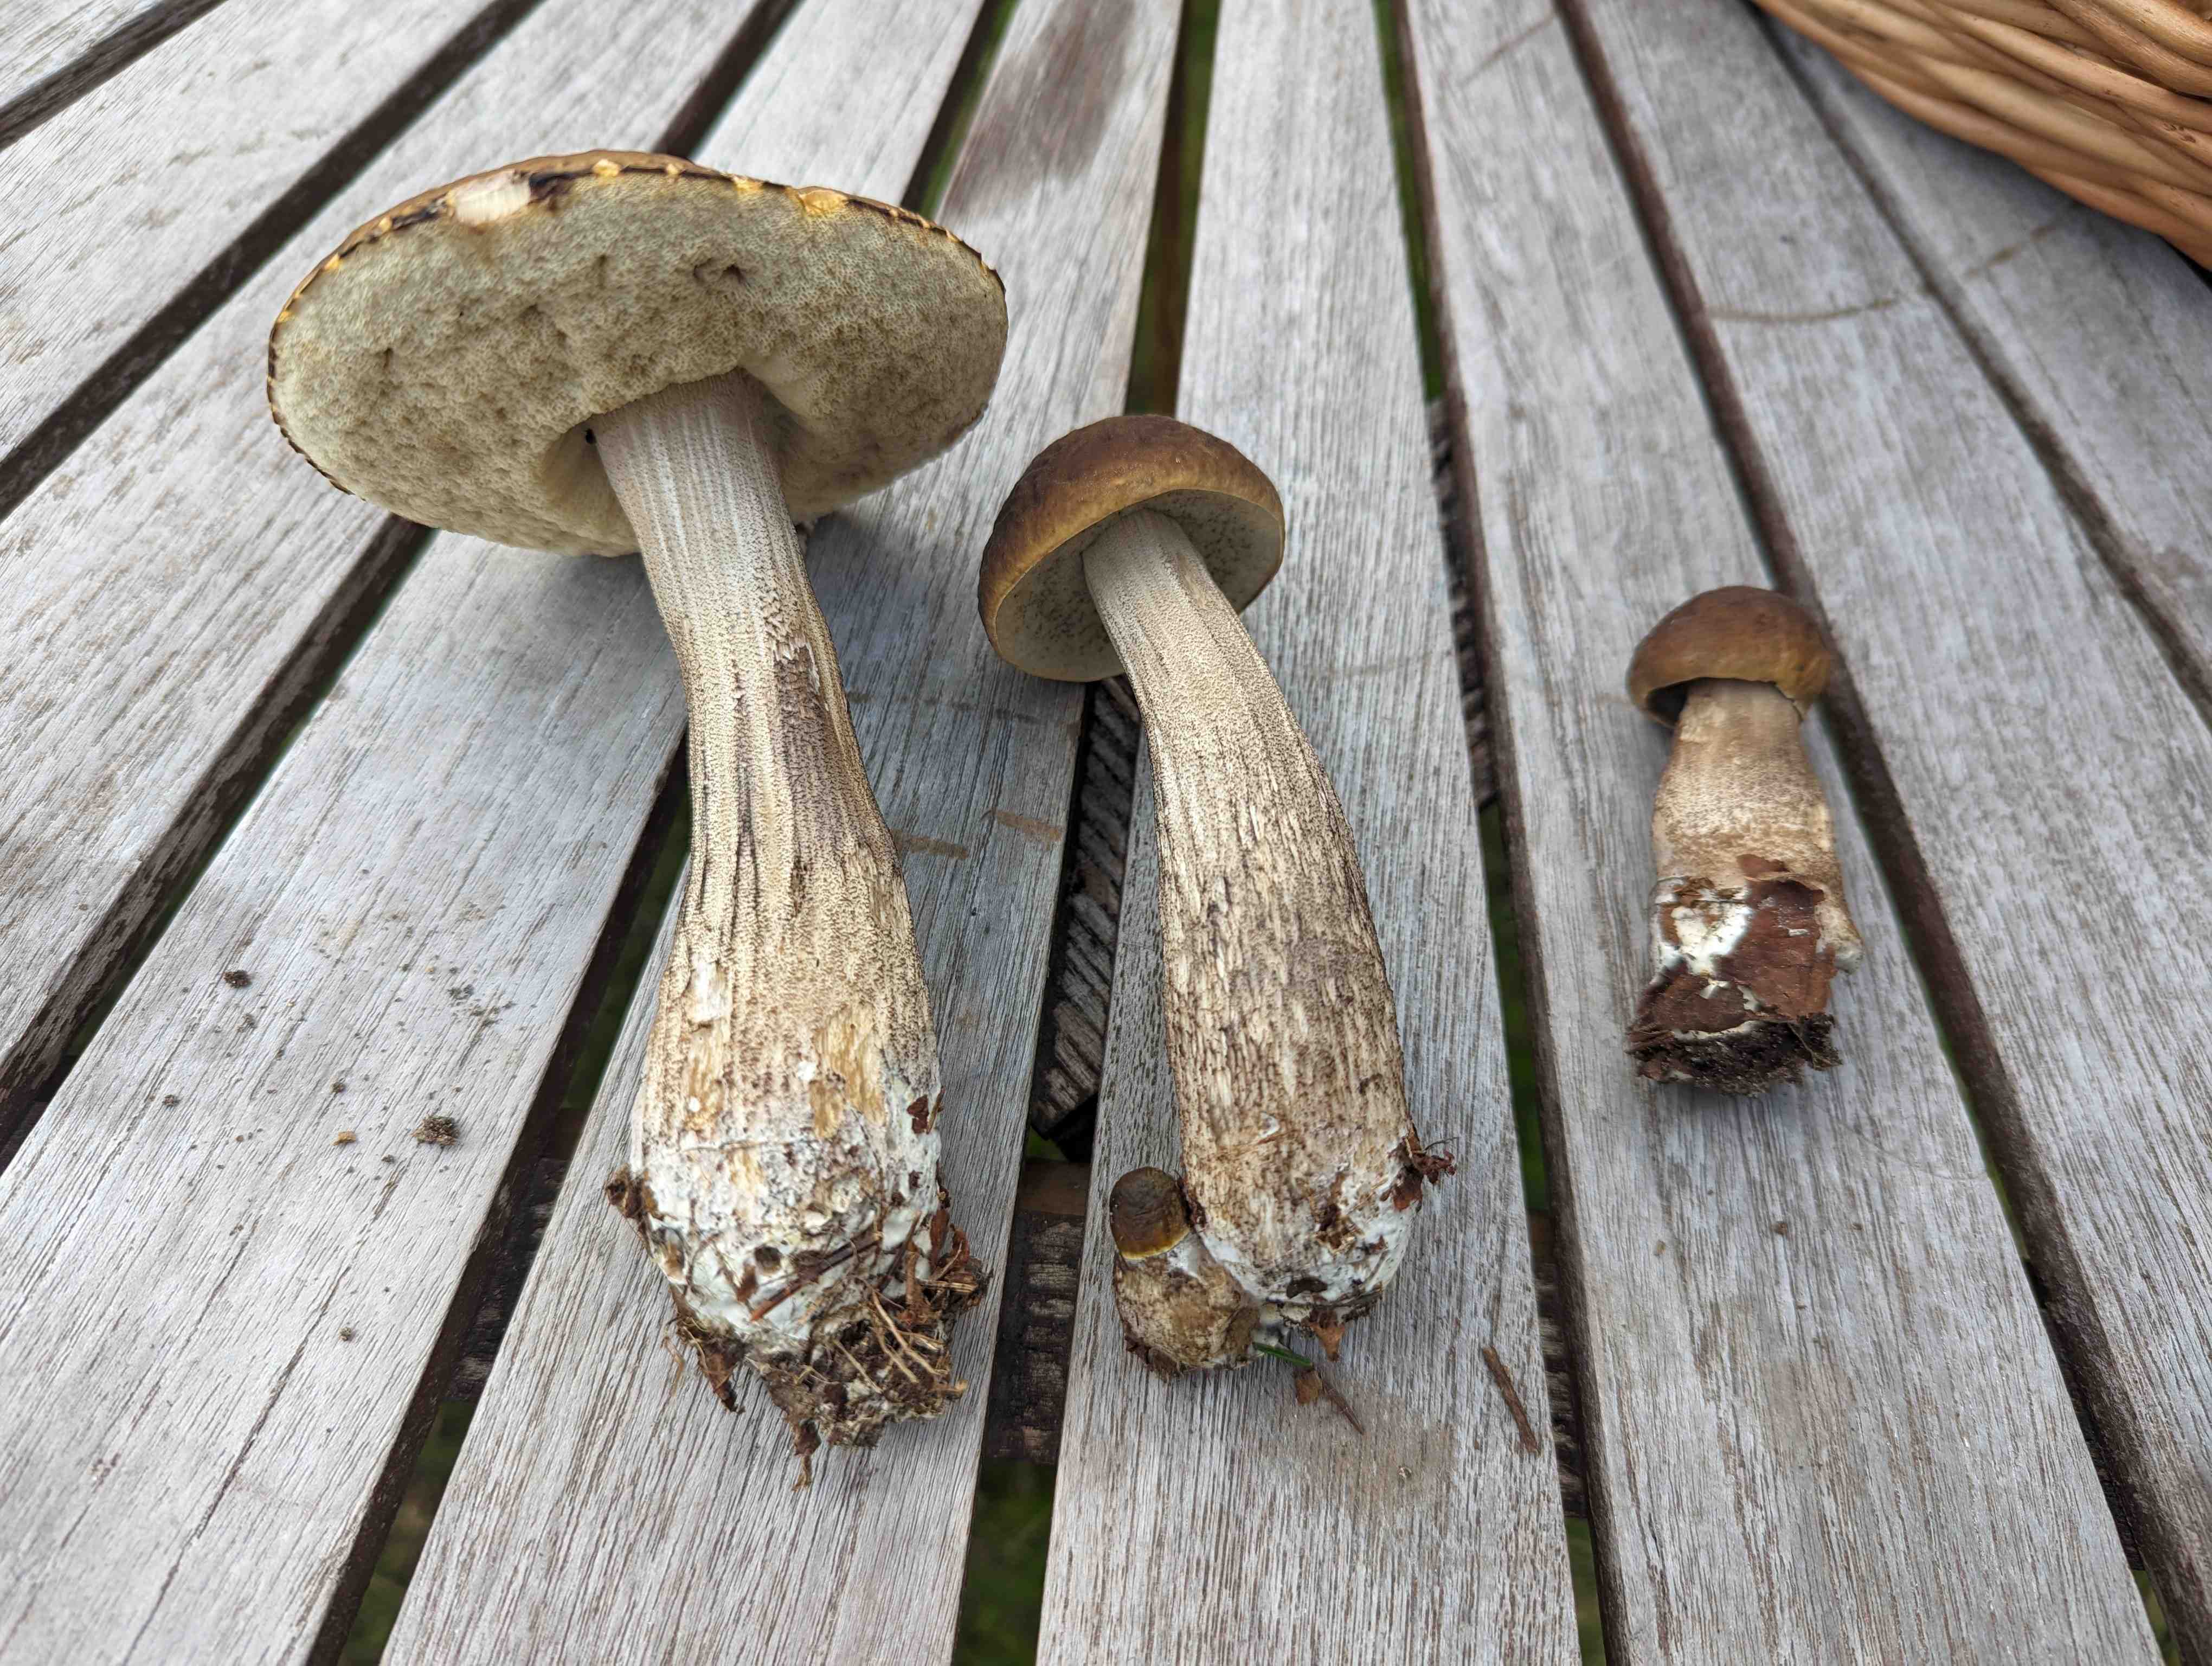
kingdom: Fungi
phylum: Basidiomycota
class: Agaricomycetes
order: Boletales
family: Boletaceae
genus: Leccinellum
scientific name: Leccinellum pseudoscabrum
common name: avnbøg-skælrørhat
